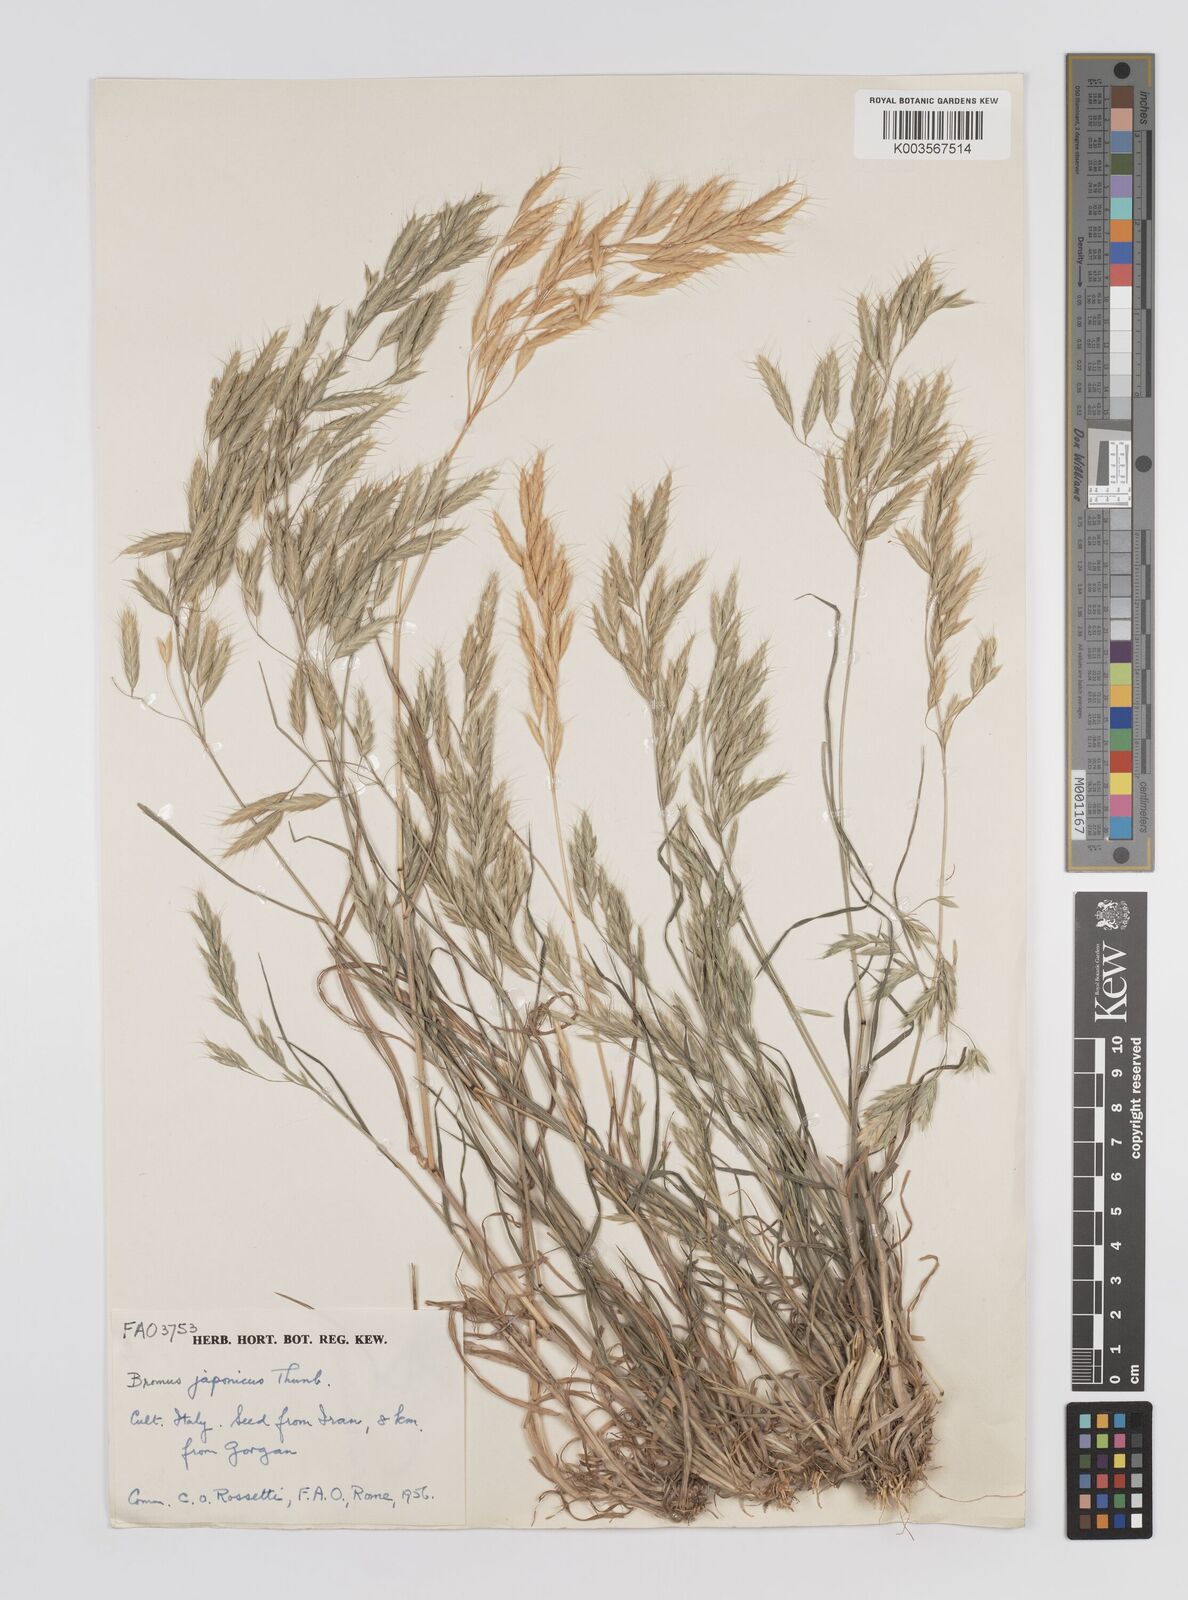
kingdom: Plantae
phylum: Tracheophyta
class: Liliopsida
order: Poales
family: Poaceae
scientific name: Poaceae
